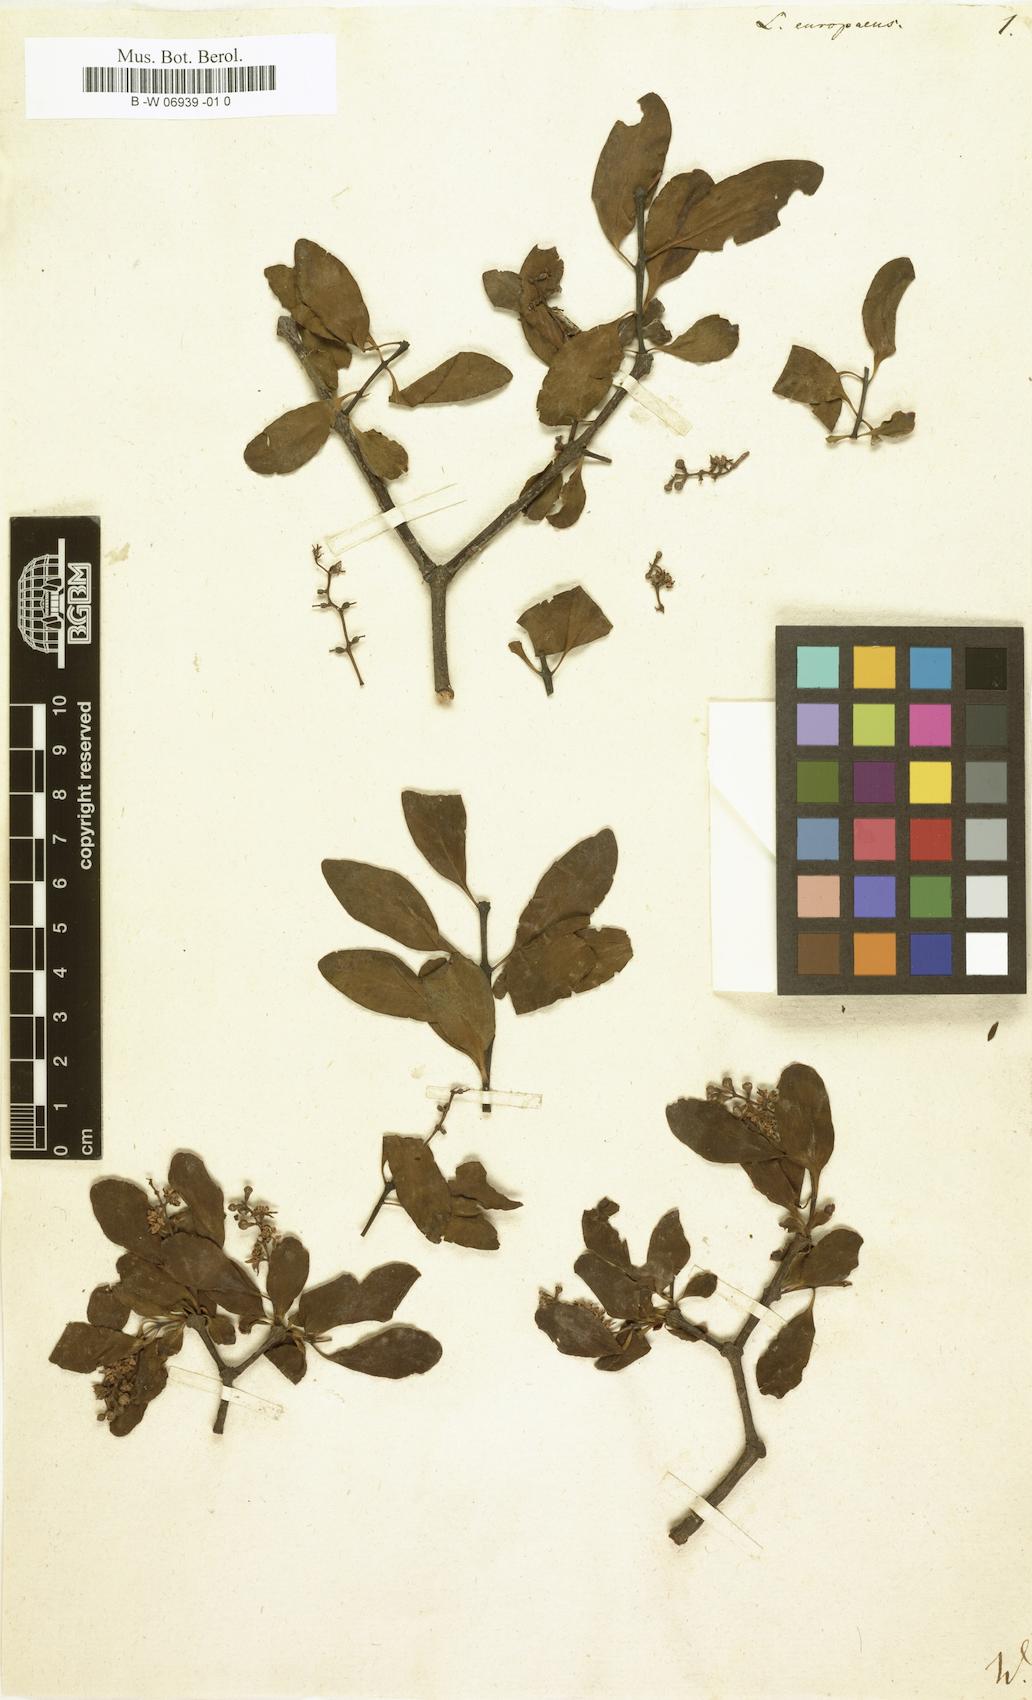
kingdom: Plantae
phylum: Tracheophyta
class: Magnoliopsida
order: Santalales
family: Loranthaceae
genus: Loranthus
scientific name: Loranthus europaeus
